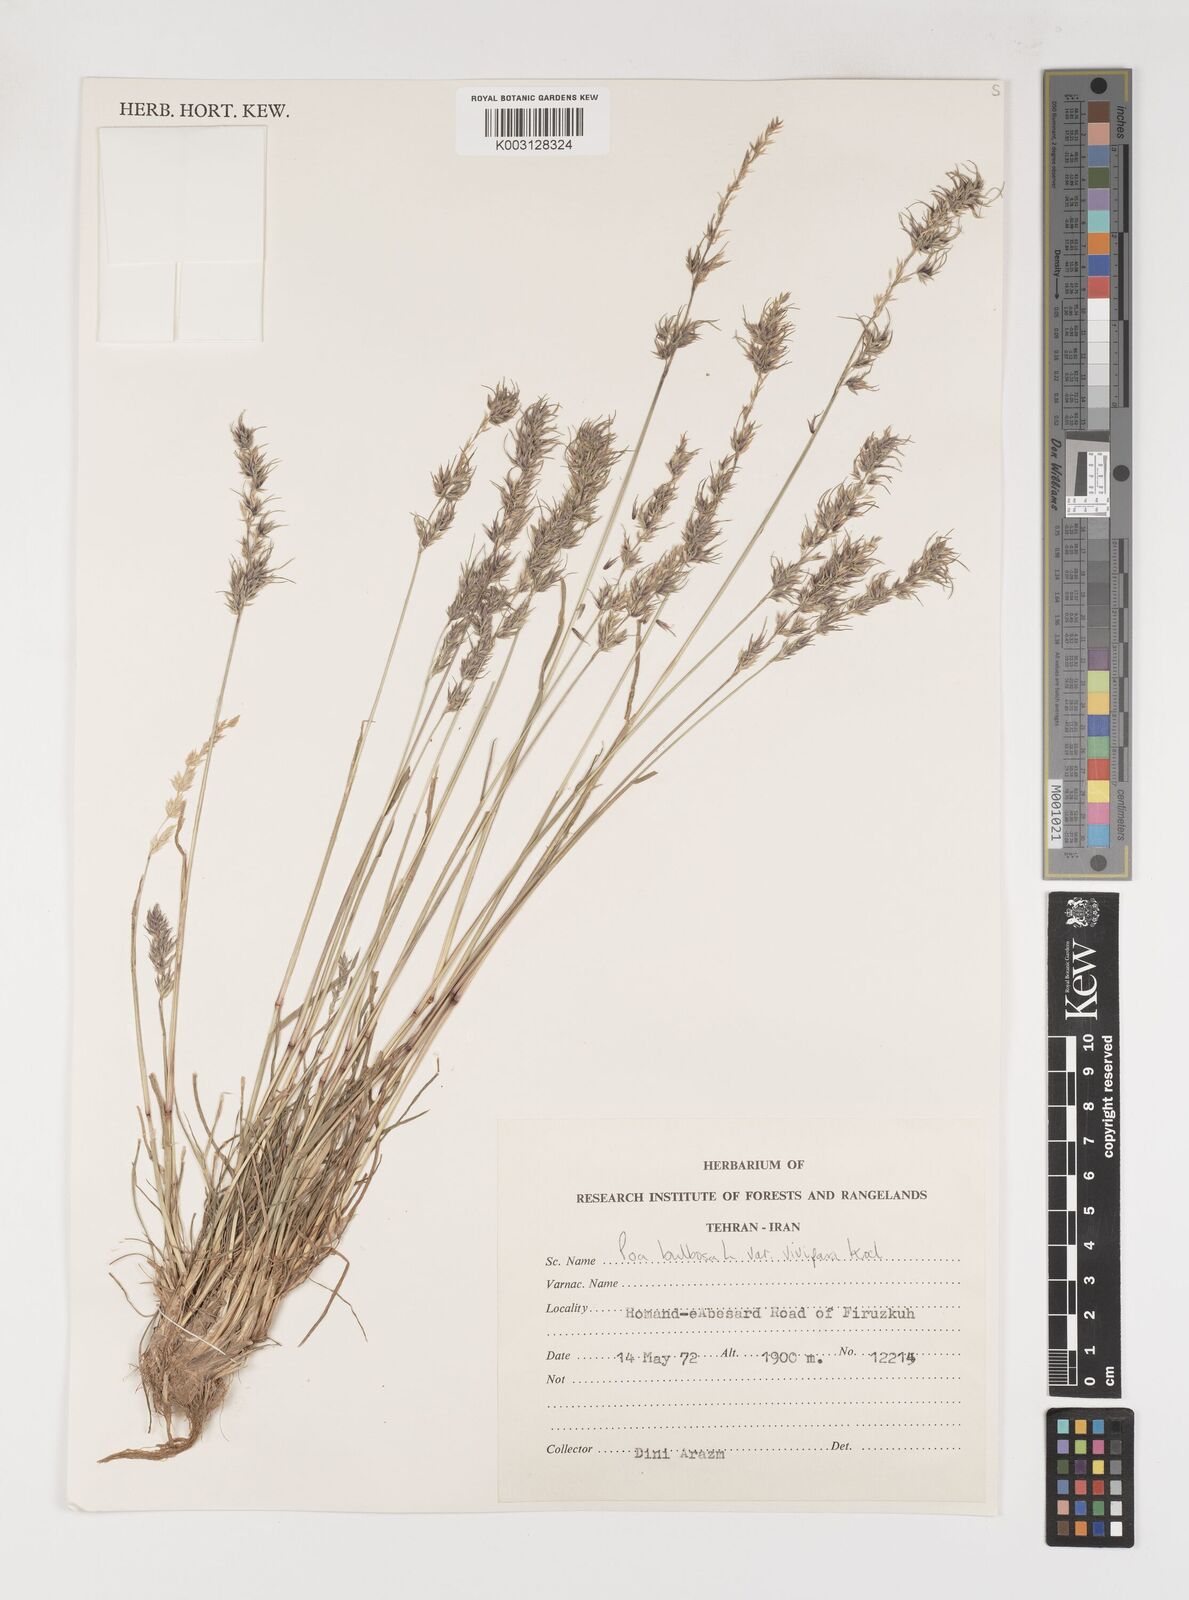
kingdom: Plantae
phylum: Tracheophyta
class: Liliopsida
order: Poales
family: Poaceae
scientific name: Poaceae
